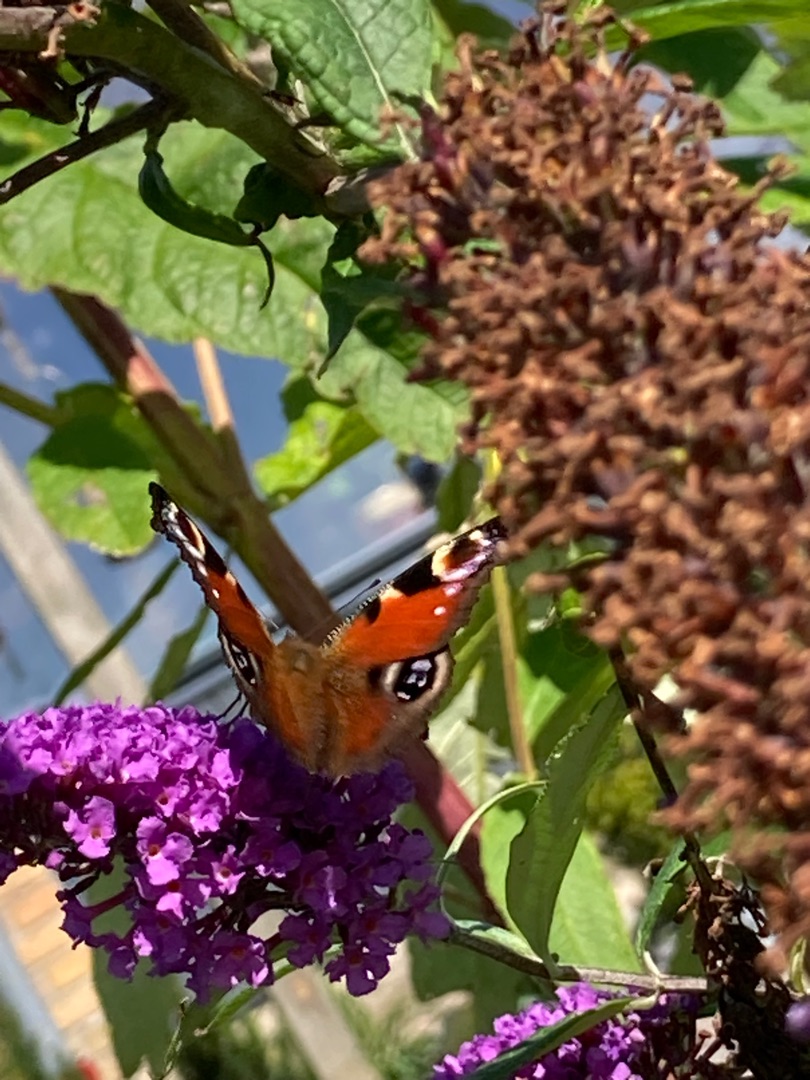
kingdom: Animalia
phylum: Arthropoda
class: Insecta
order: Lepidoptera
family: Nymphalidae
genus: Aglais
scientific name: Aglais io
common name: Dagpåfugleøje
